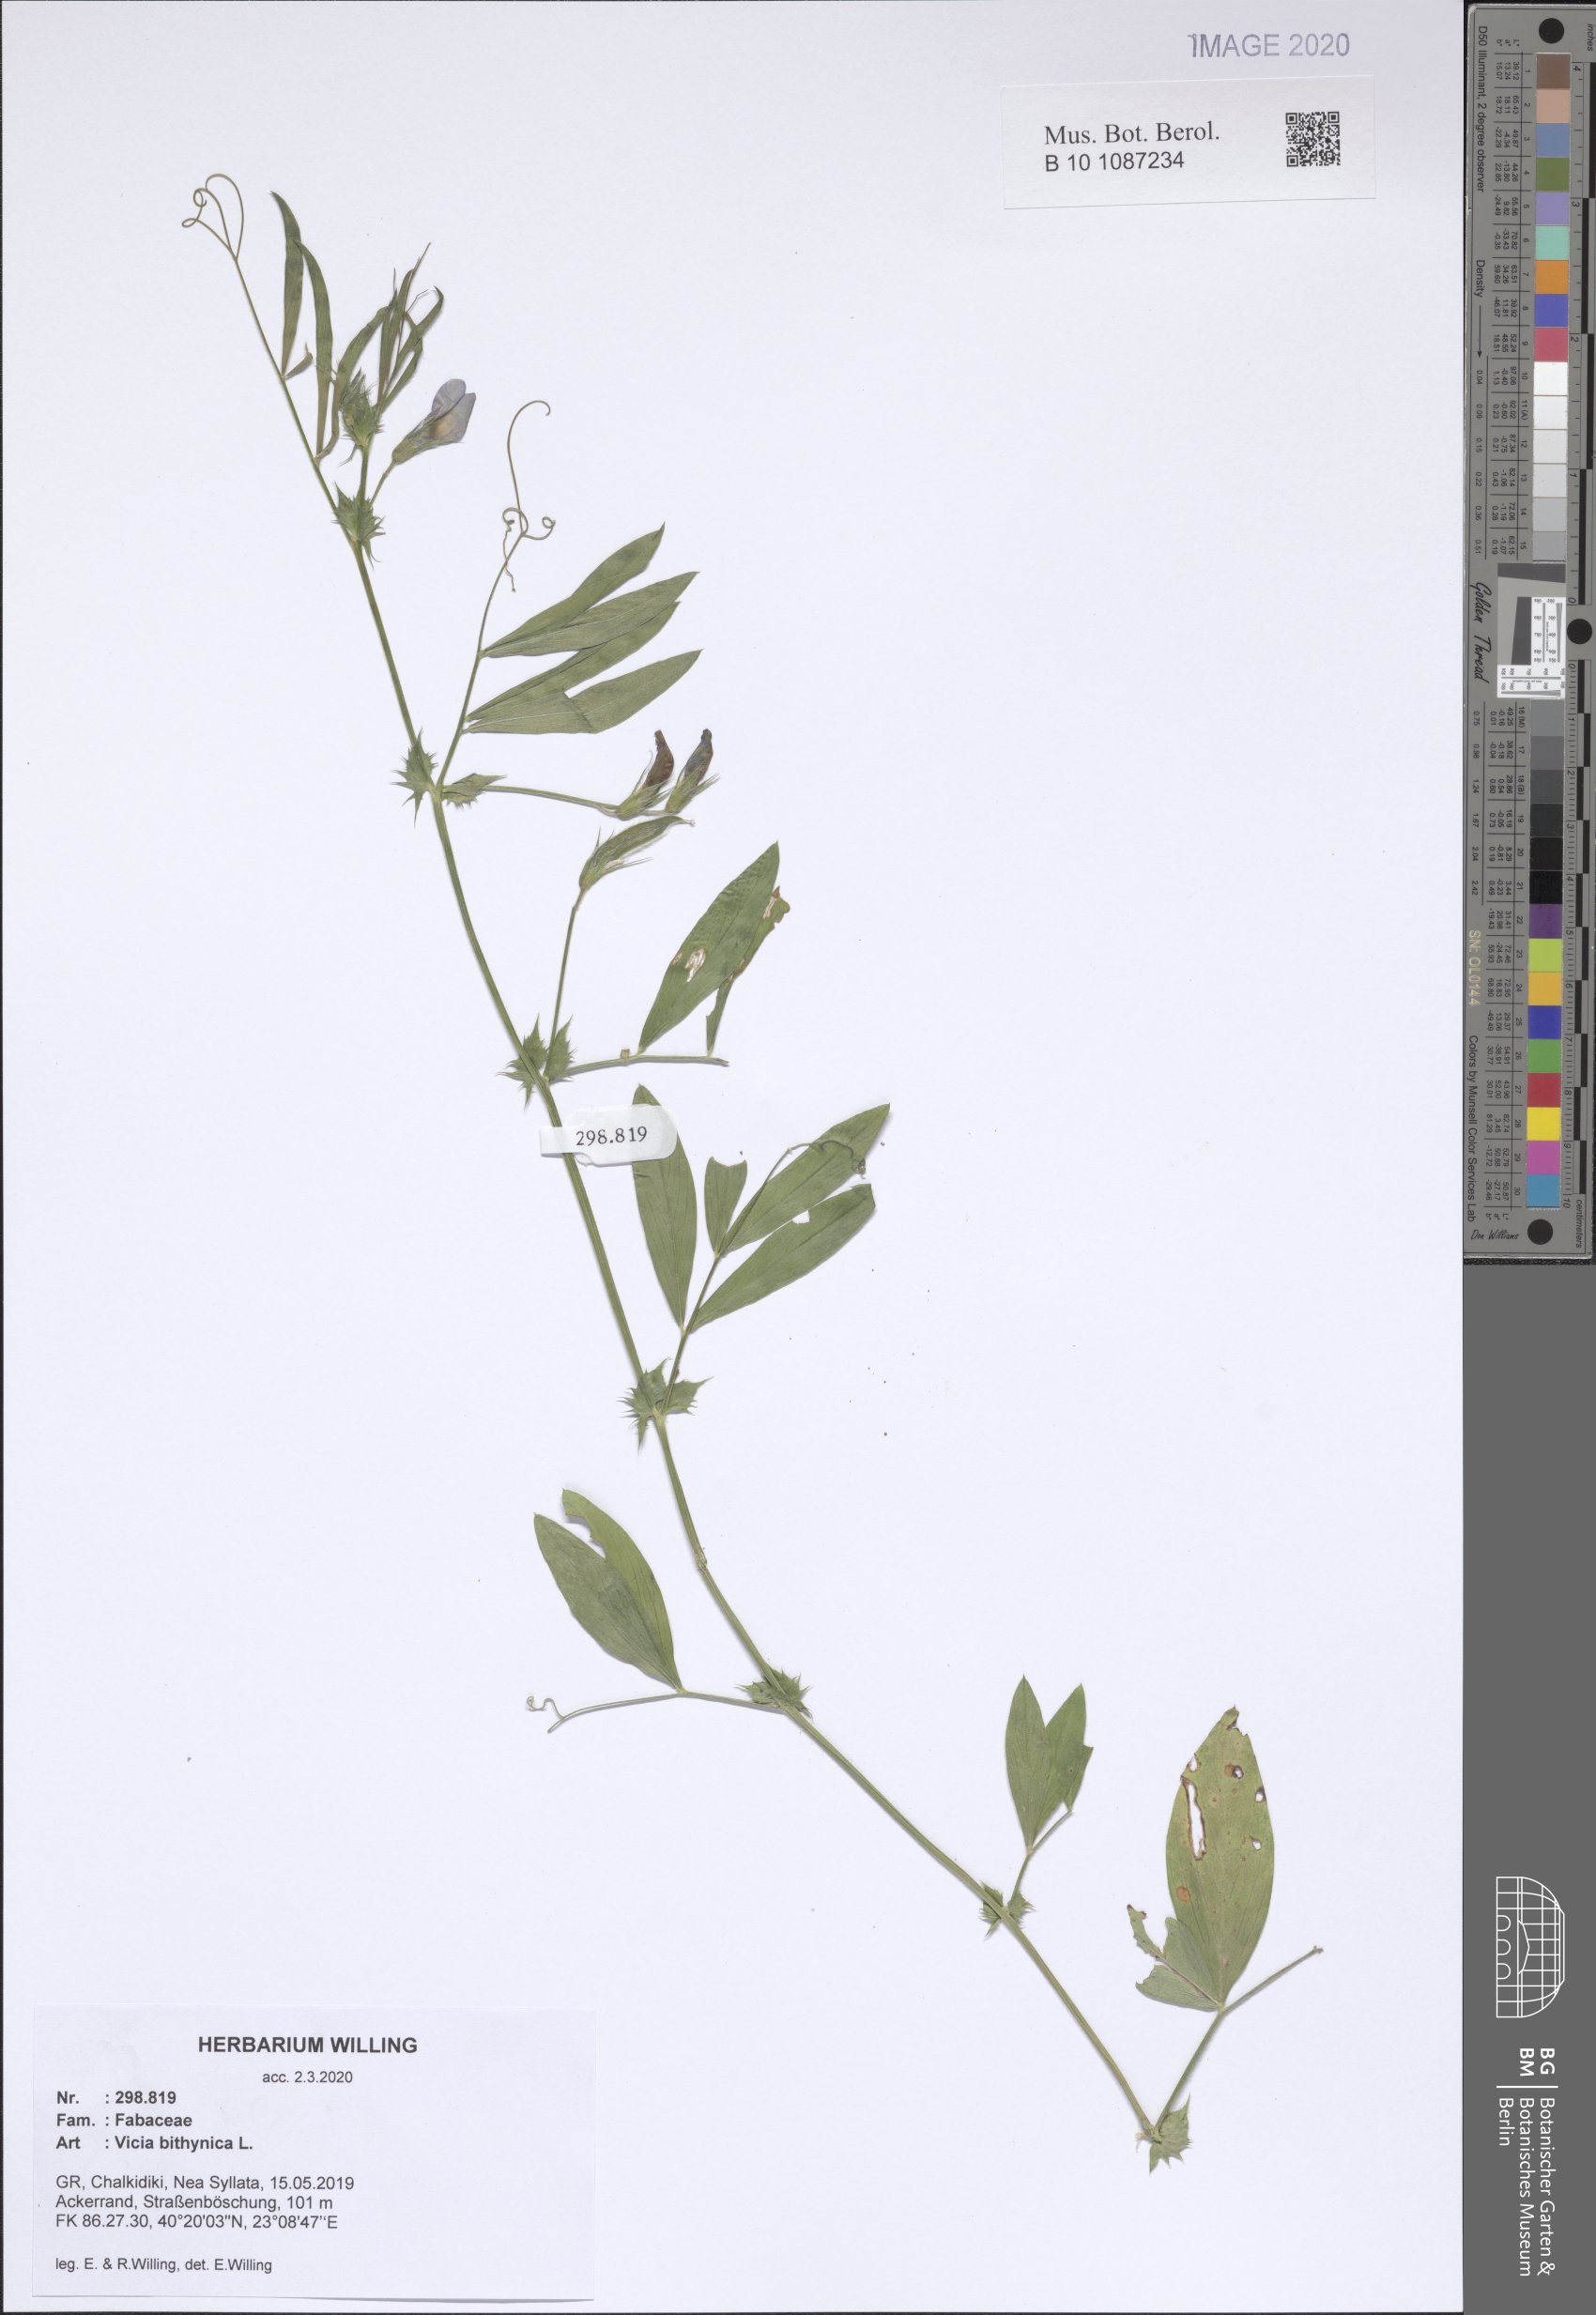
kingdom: Plantae
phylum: Tracheophyta
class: Magnoliopsida
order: Fabales
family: Fabaceae
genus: Vicia
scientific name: Vicia bithynica
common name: Bithynian vetch
